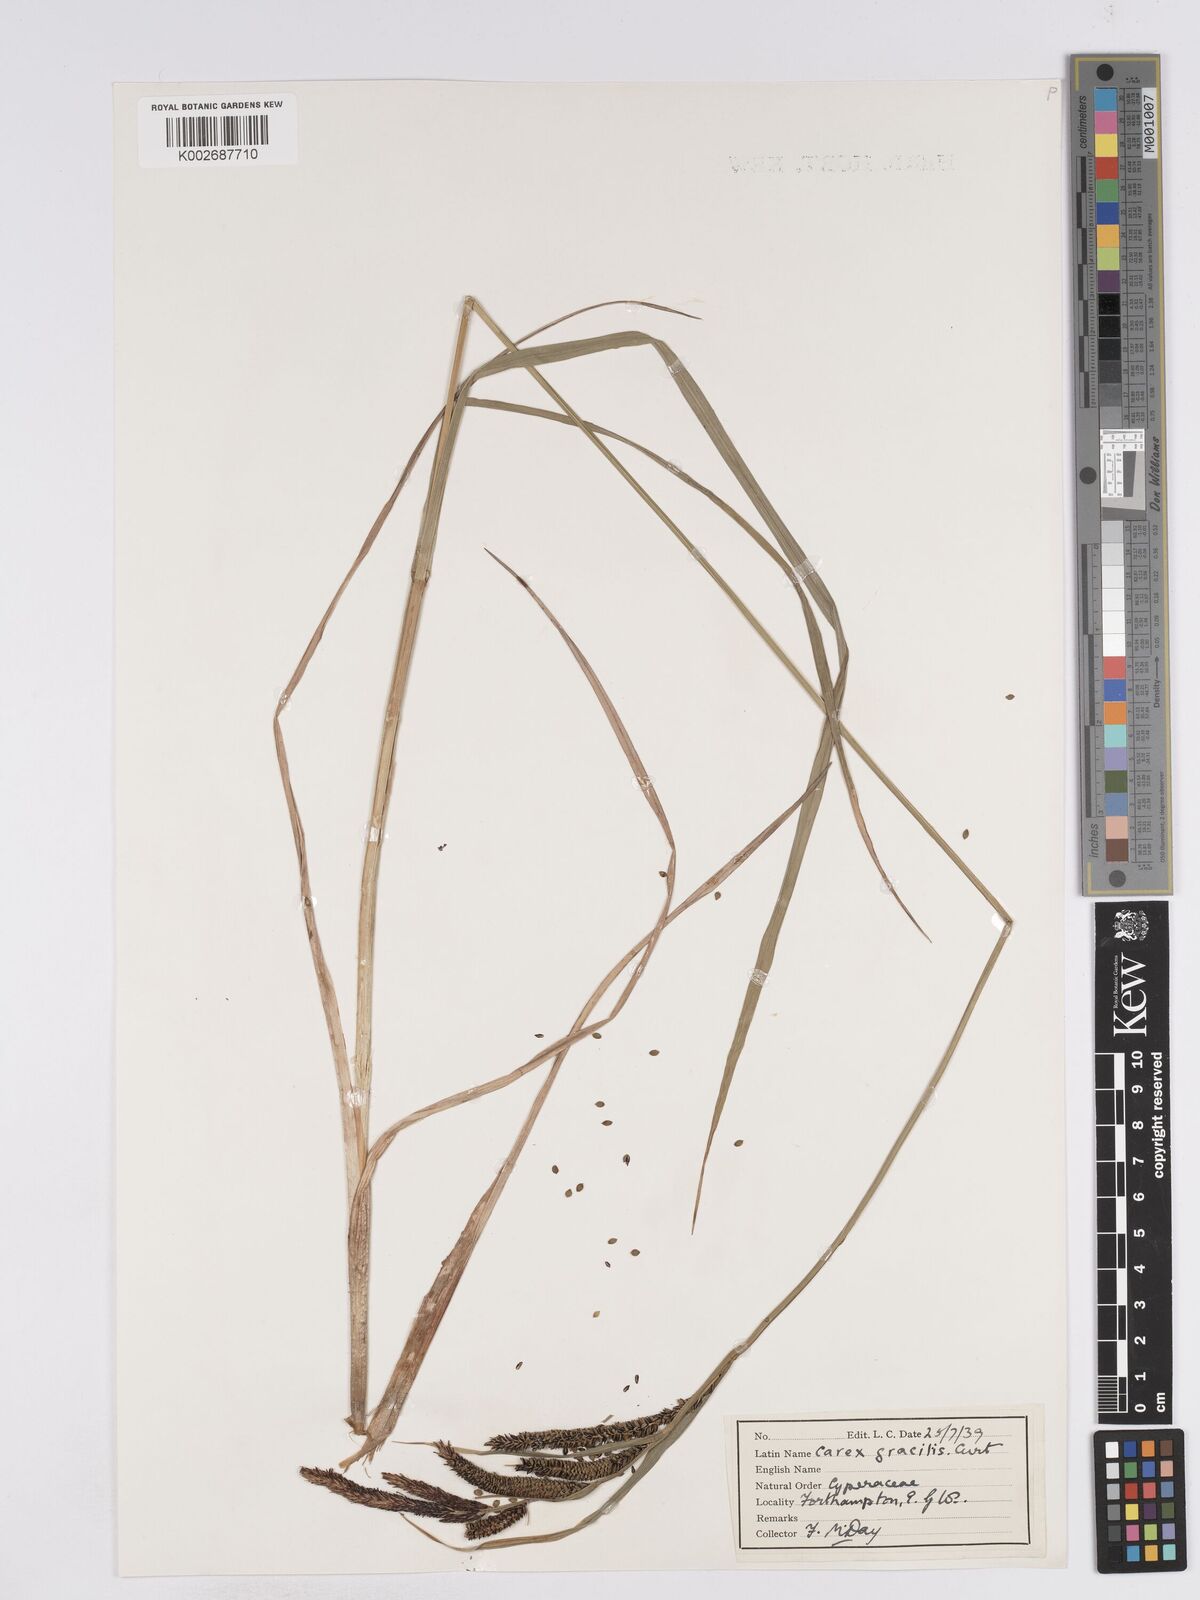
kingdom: Plantae
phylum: Tracheophyta
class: Liliopsida
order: Poales
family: Cyperaceae
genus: Carex
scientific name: Carex acuta
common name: Slender tufted-sedge
